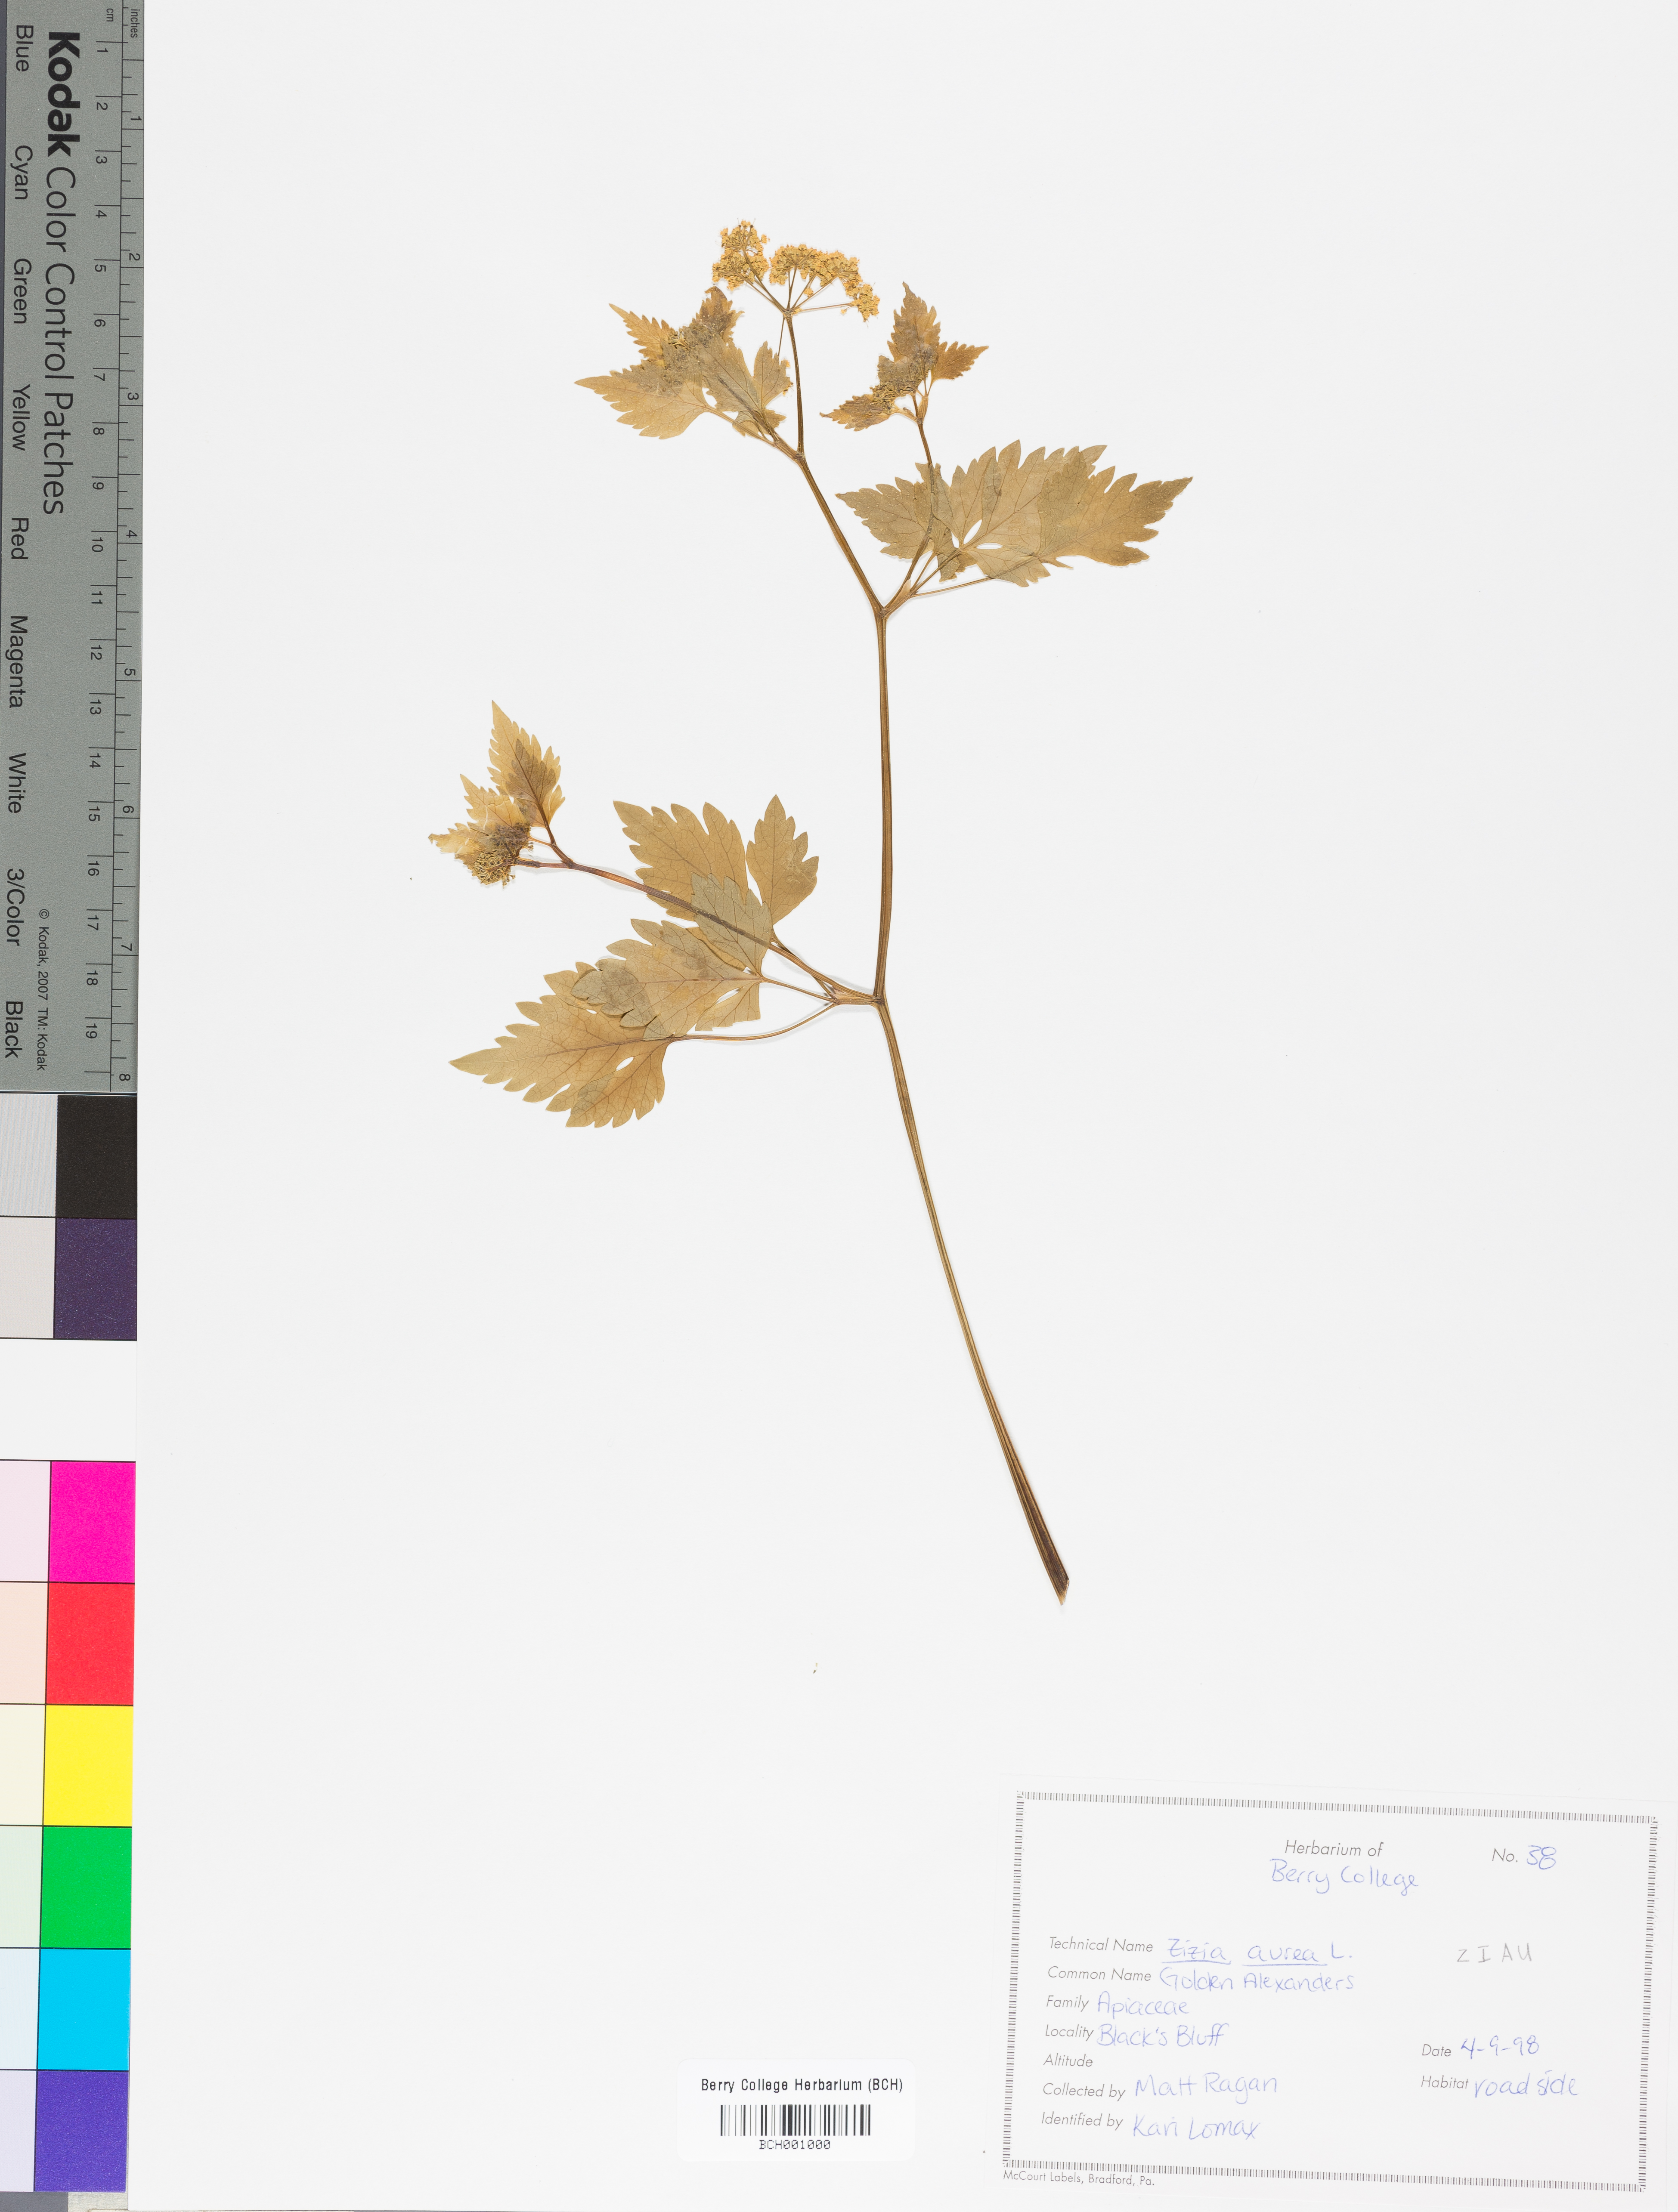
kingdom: Plantae
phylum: Tracheophyta
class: Magnoliopsida
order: Apiales
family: Apiaceae
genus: Zizia
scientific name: Zizia aurea
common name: Golden alexanders
